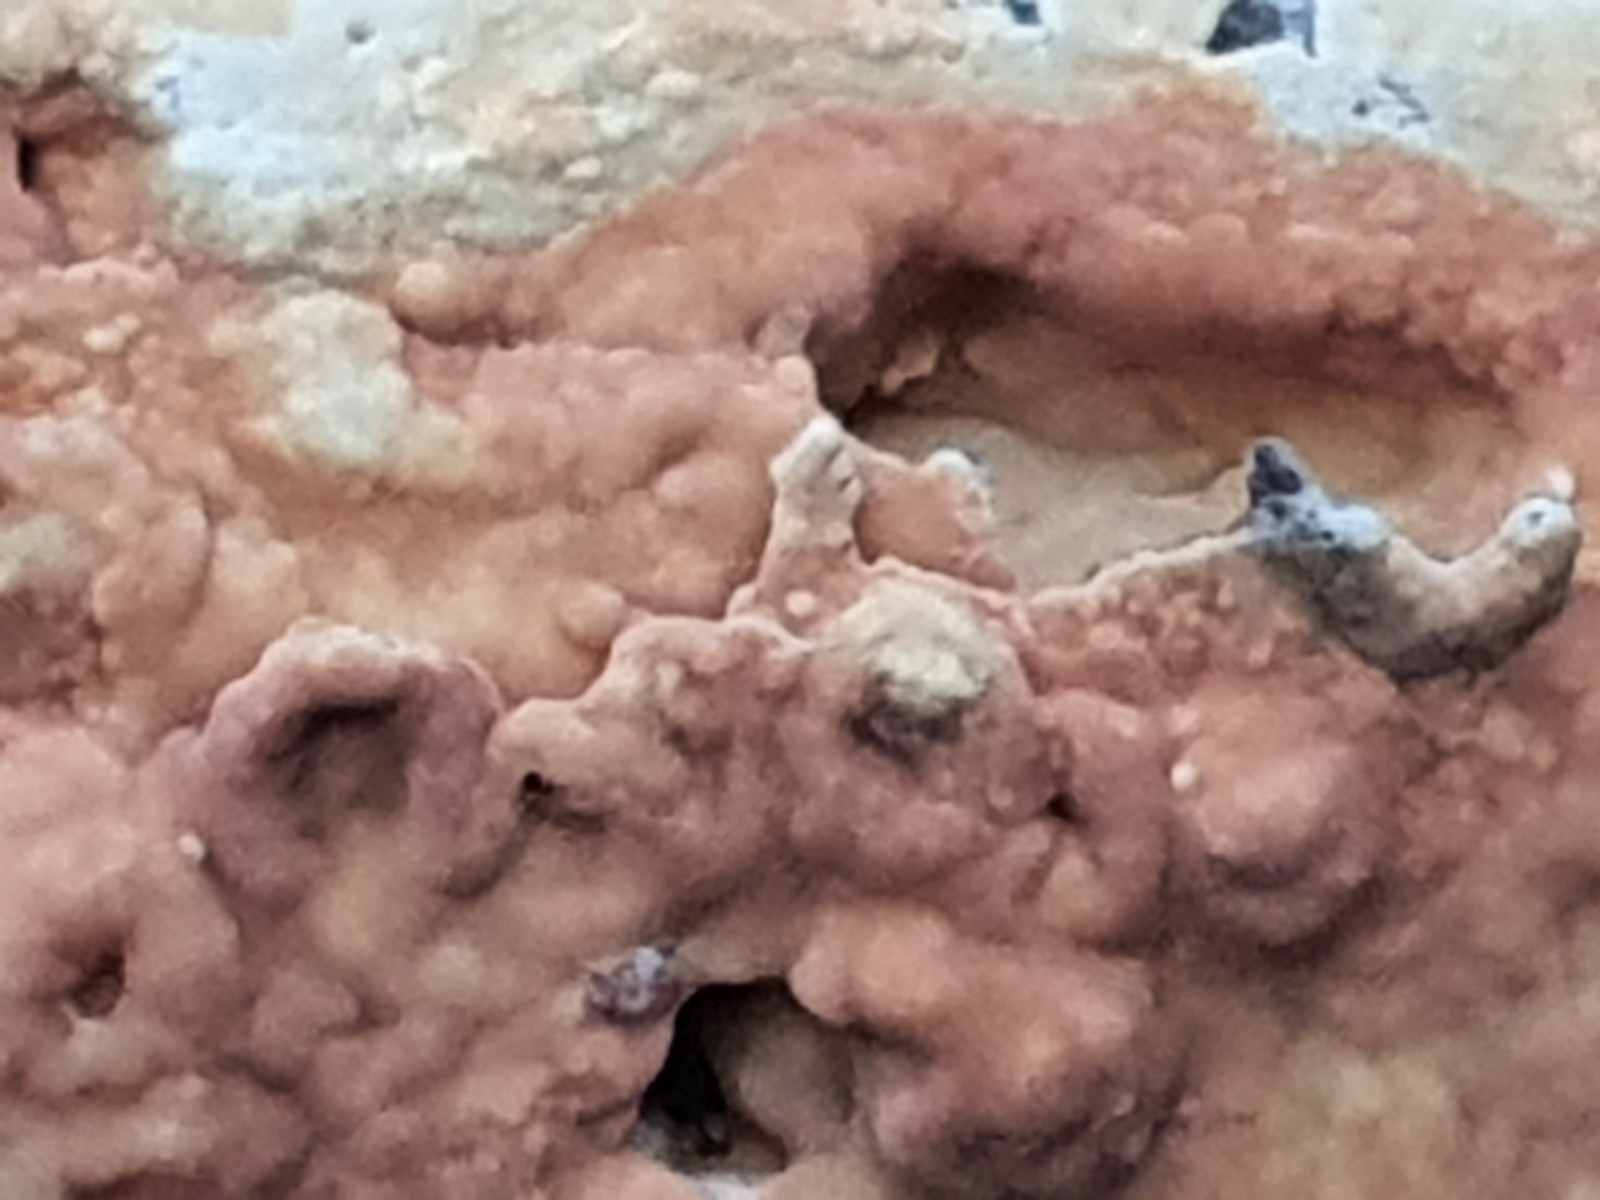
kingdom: Fungi
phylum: Basidiomycota
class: Agaricomycetes
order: Agaricales
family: Physalacriaceae
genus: Cylindrobasidium
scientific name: Cylindrobasidium evolvens
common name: sprækkehinde
